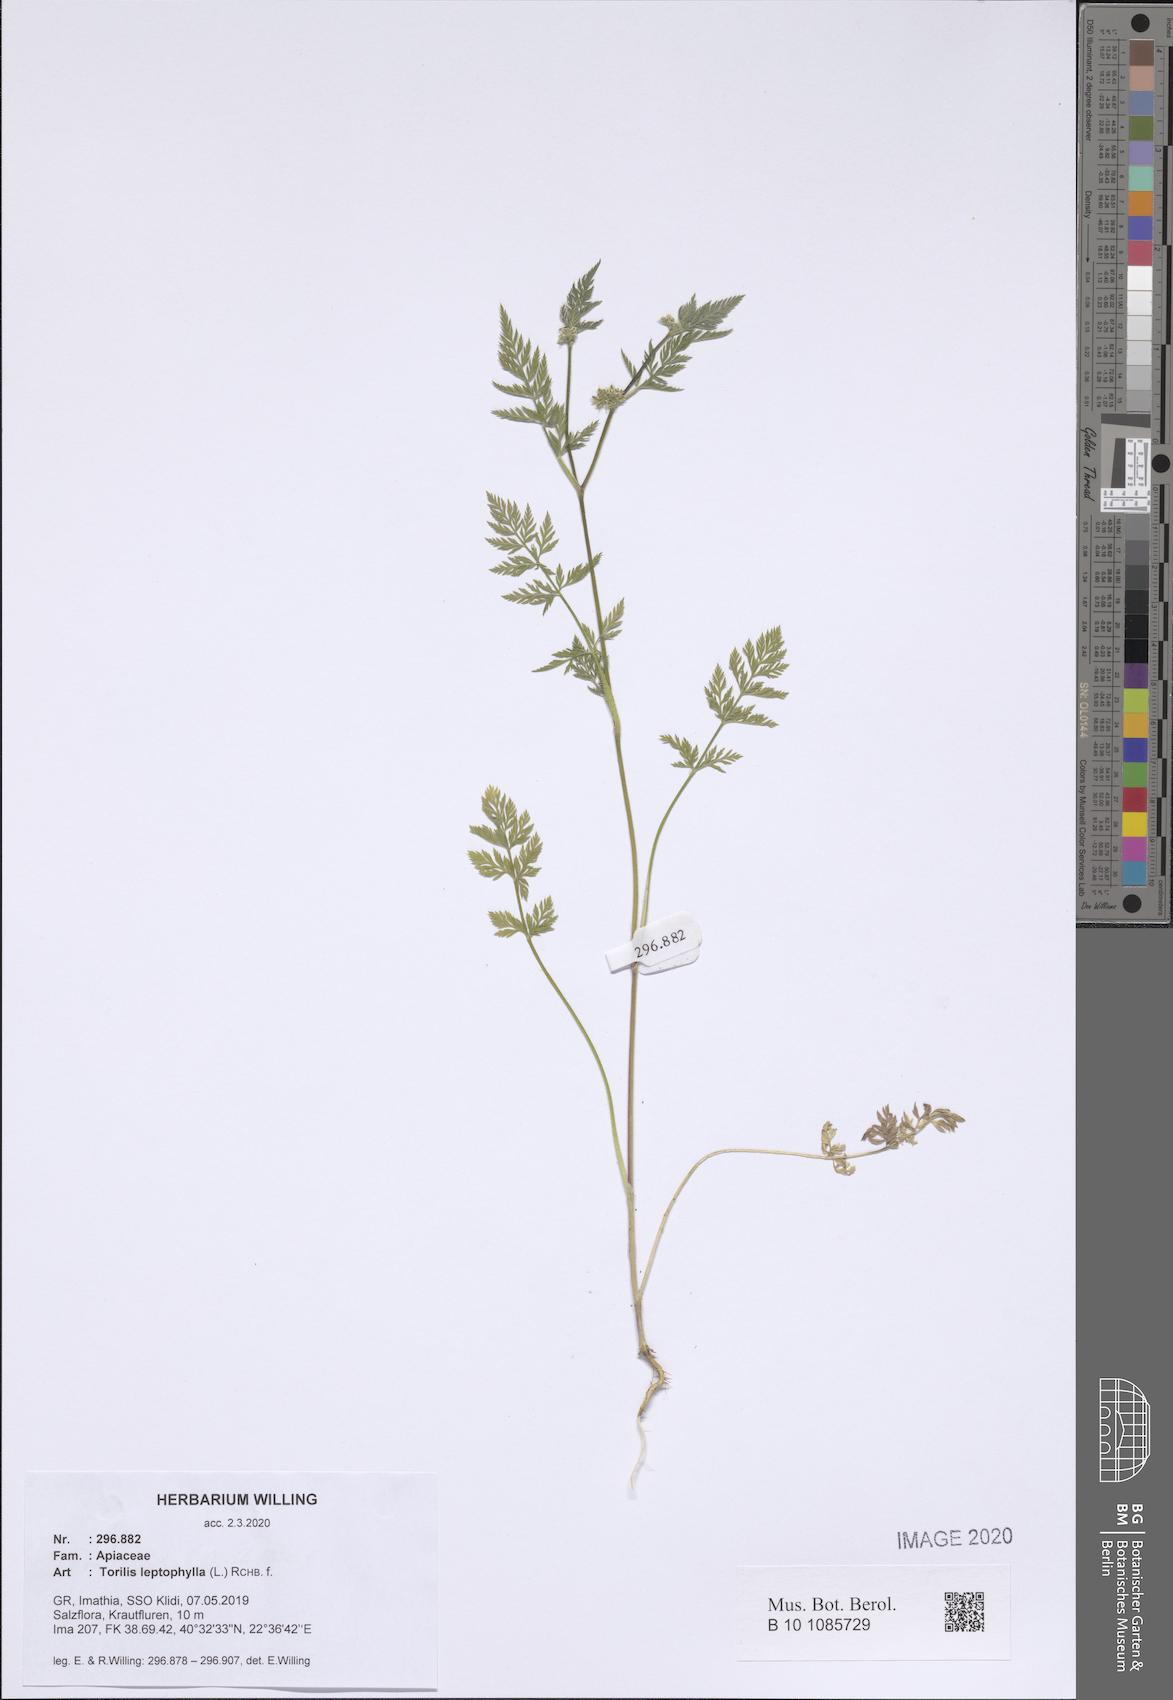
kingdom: Plantae
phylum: Tracheophyta
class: Magnoliopsida
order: Apiales
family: Apiaceae
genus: Torilis
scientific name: Torilis leptophylla
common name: Bristlefruit hedgeparsley
